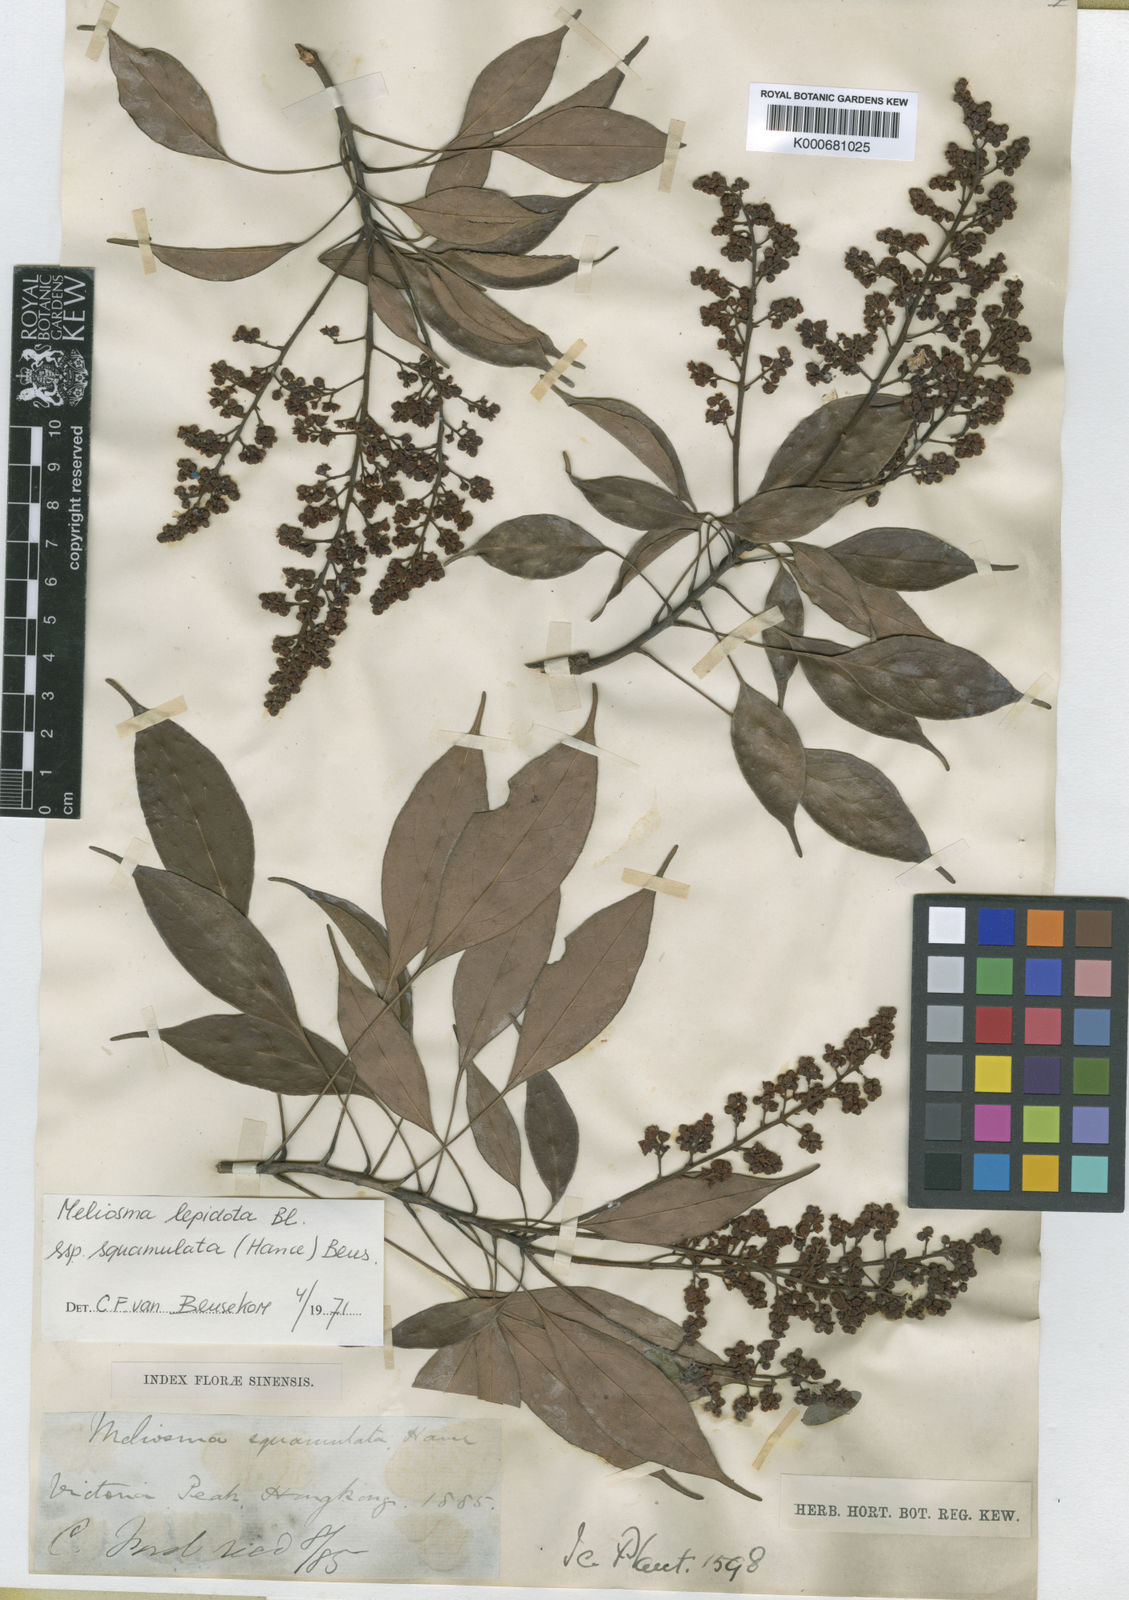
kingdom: Plantae
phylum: Tracheophyta
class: Magnoliopsida
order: Proteales
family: Sabiaceae
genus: Meliosma
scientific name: Meliosma squamulata
